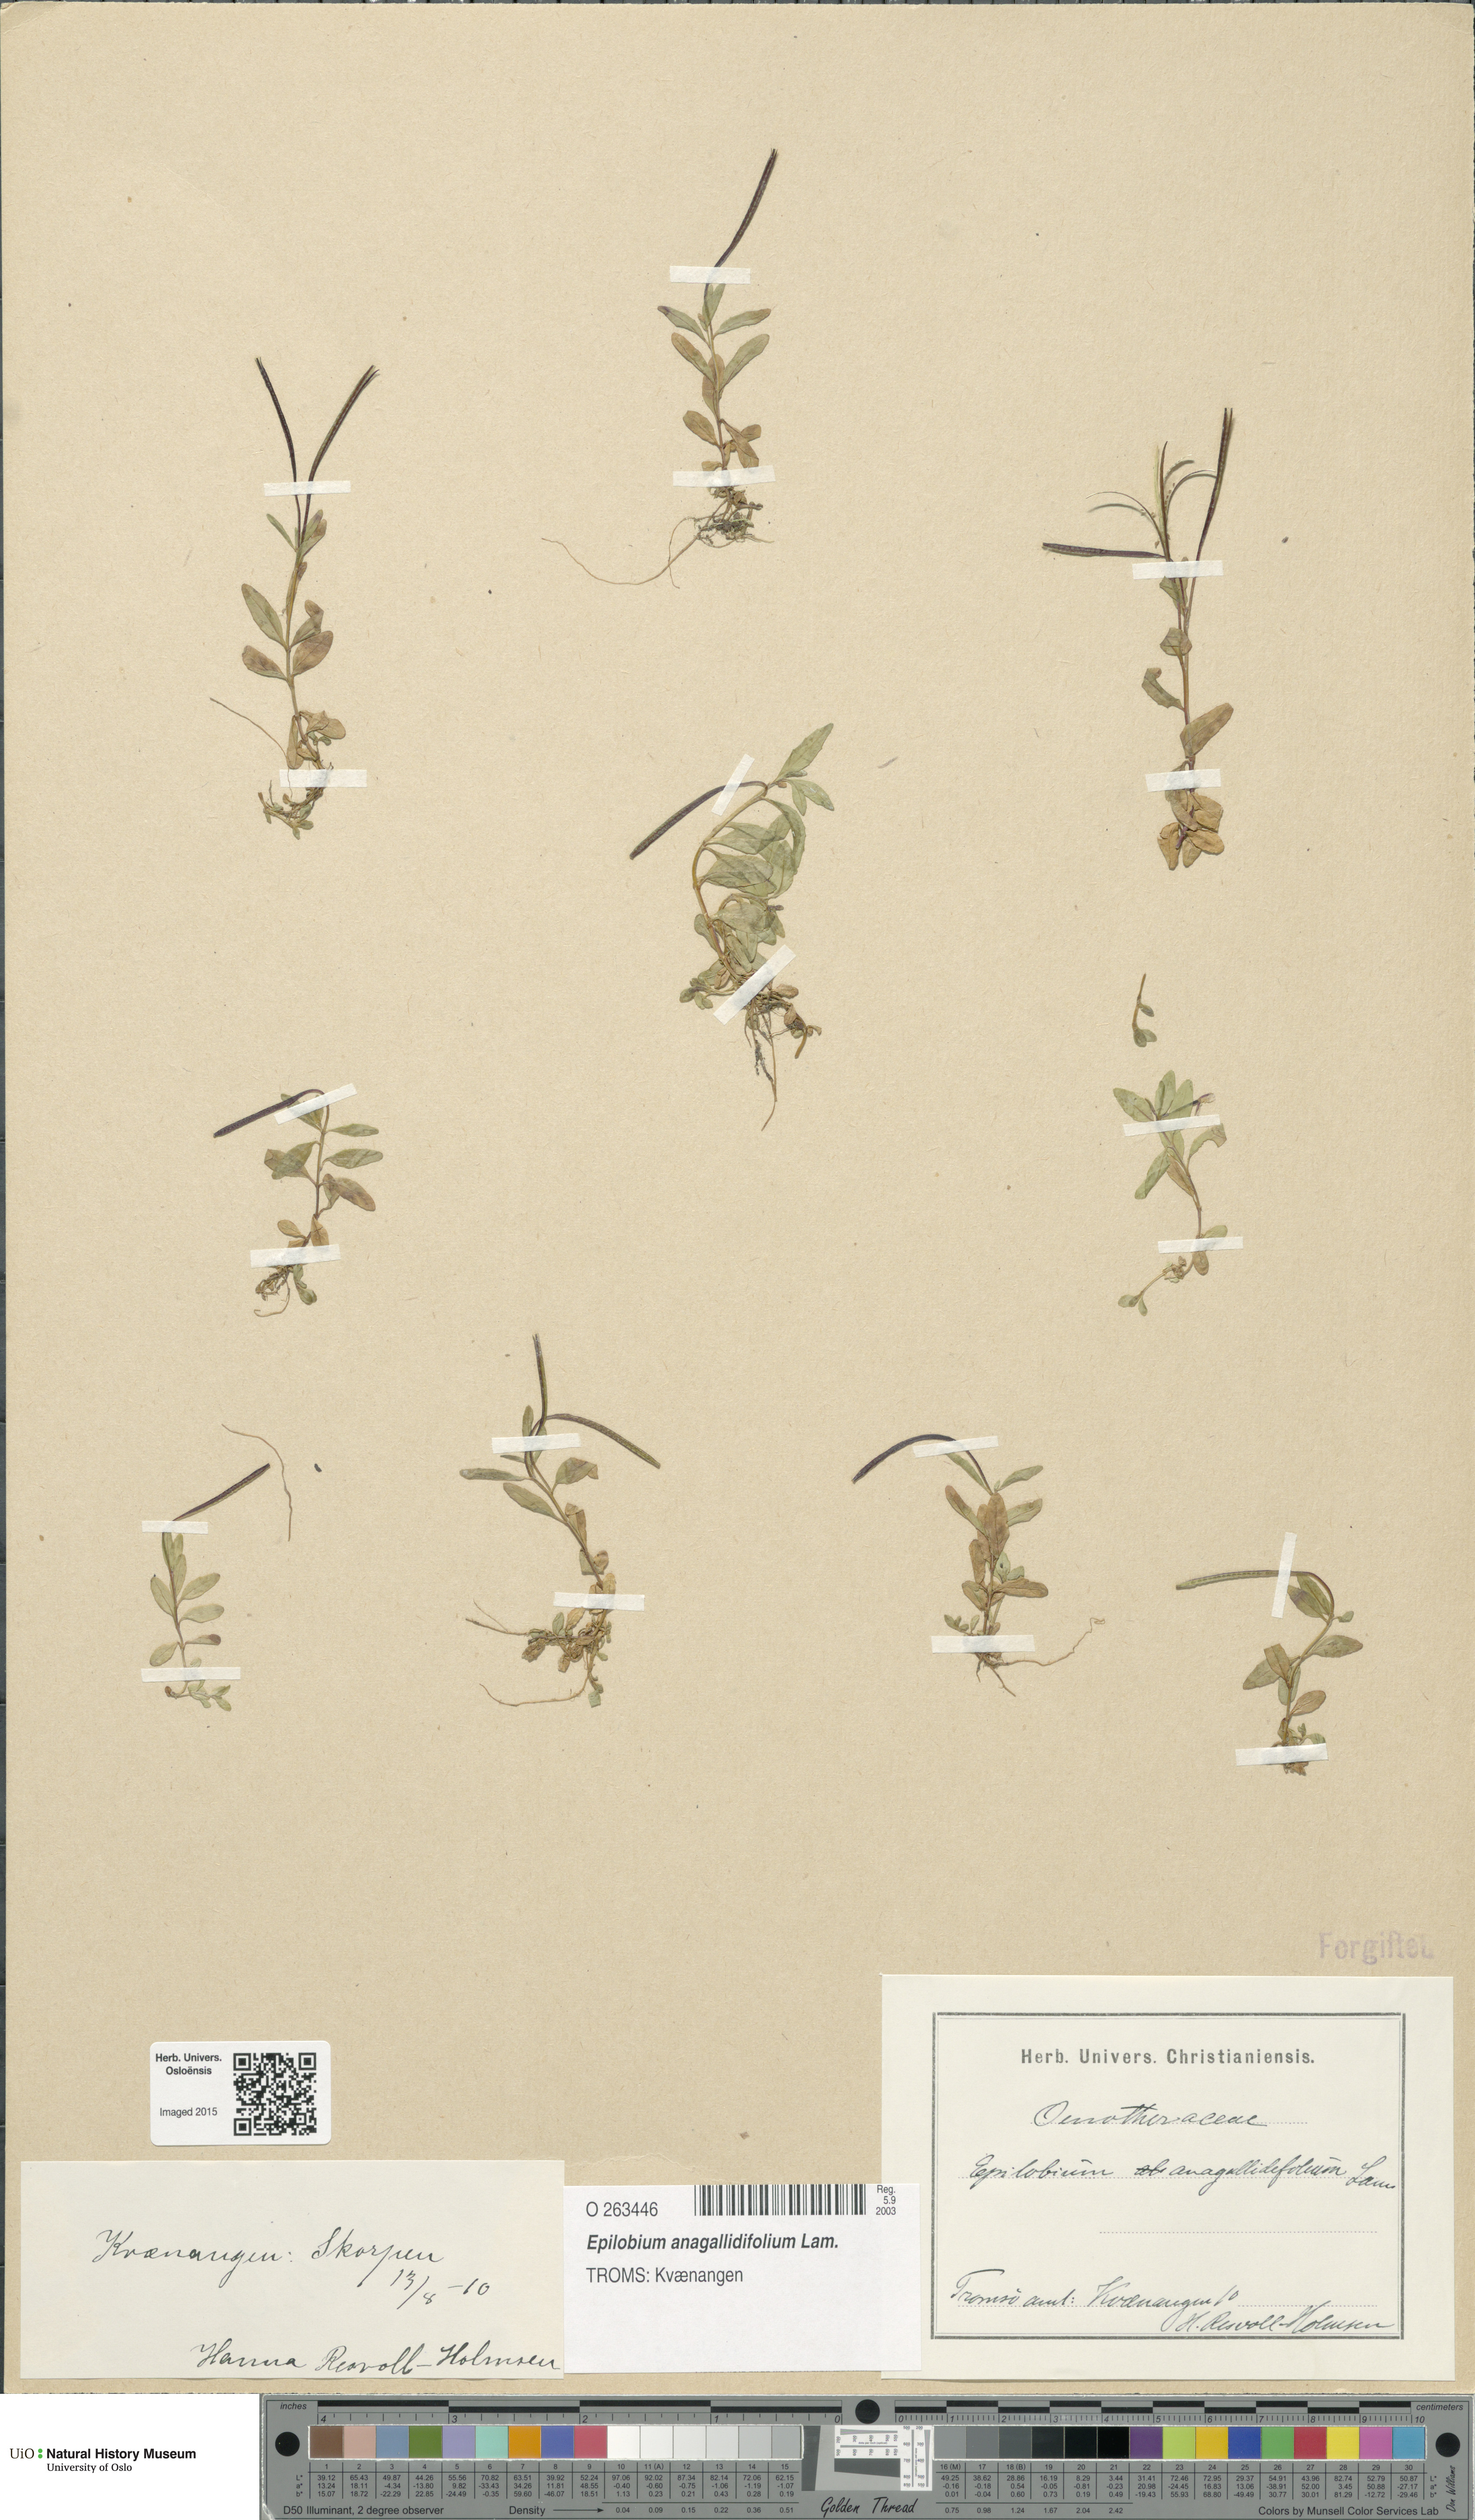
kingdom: Plantae
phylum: Tracheophyta
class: Magnoliopsida
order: Myrtales
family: Onagraceae
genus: Epilobium
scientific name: Epilobium anagallidifolium
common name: Alpine willowherb
